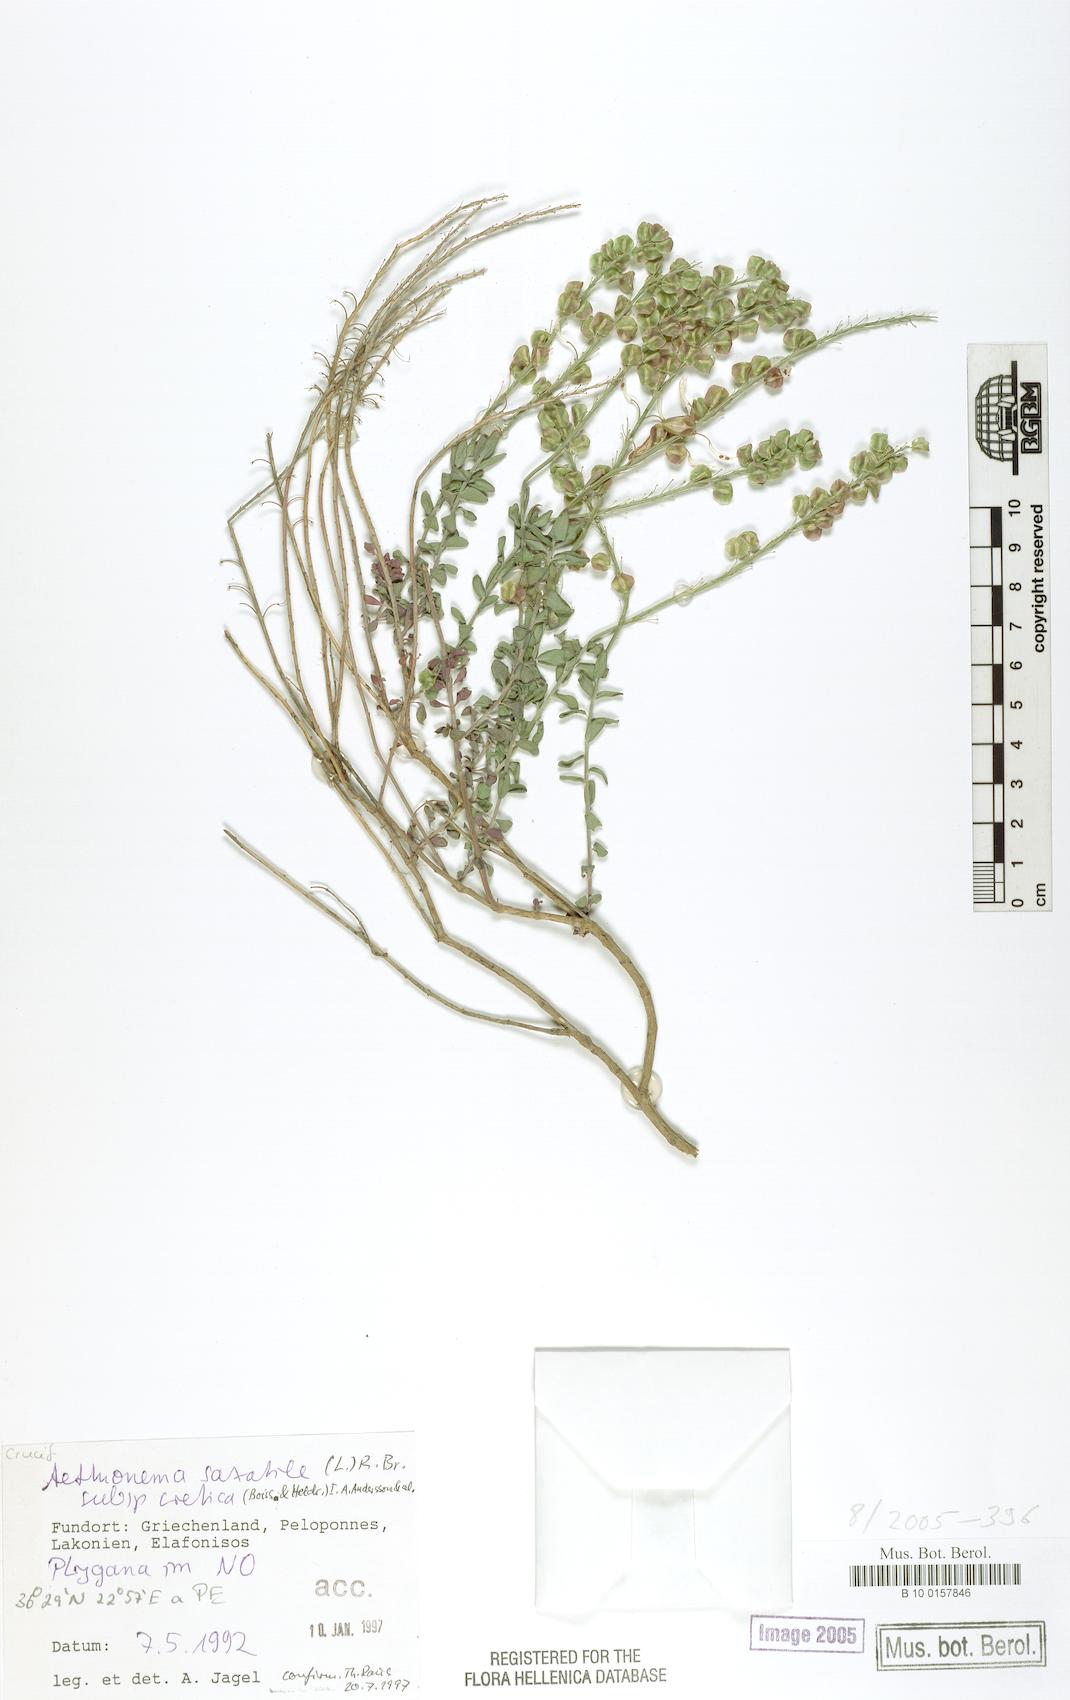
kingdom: Plantae
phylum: Tracheophyta
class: Magnoliopsida
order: Brassicales
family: Brassicaceae
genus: Aethionema
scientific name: Aethionema saxatile
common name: Burnt candytuft
